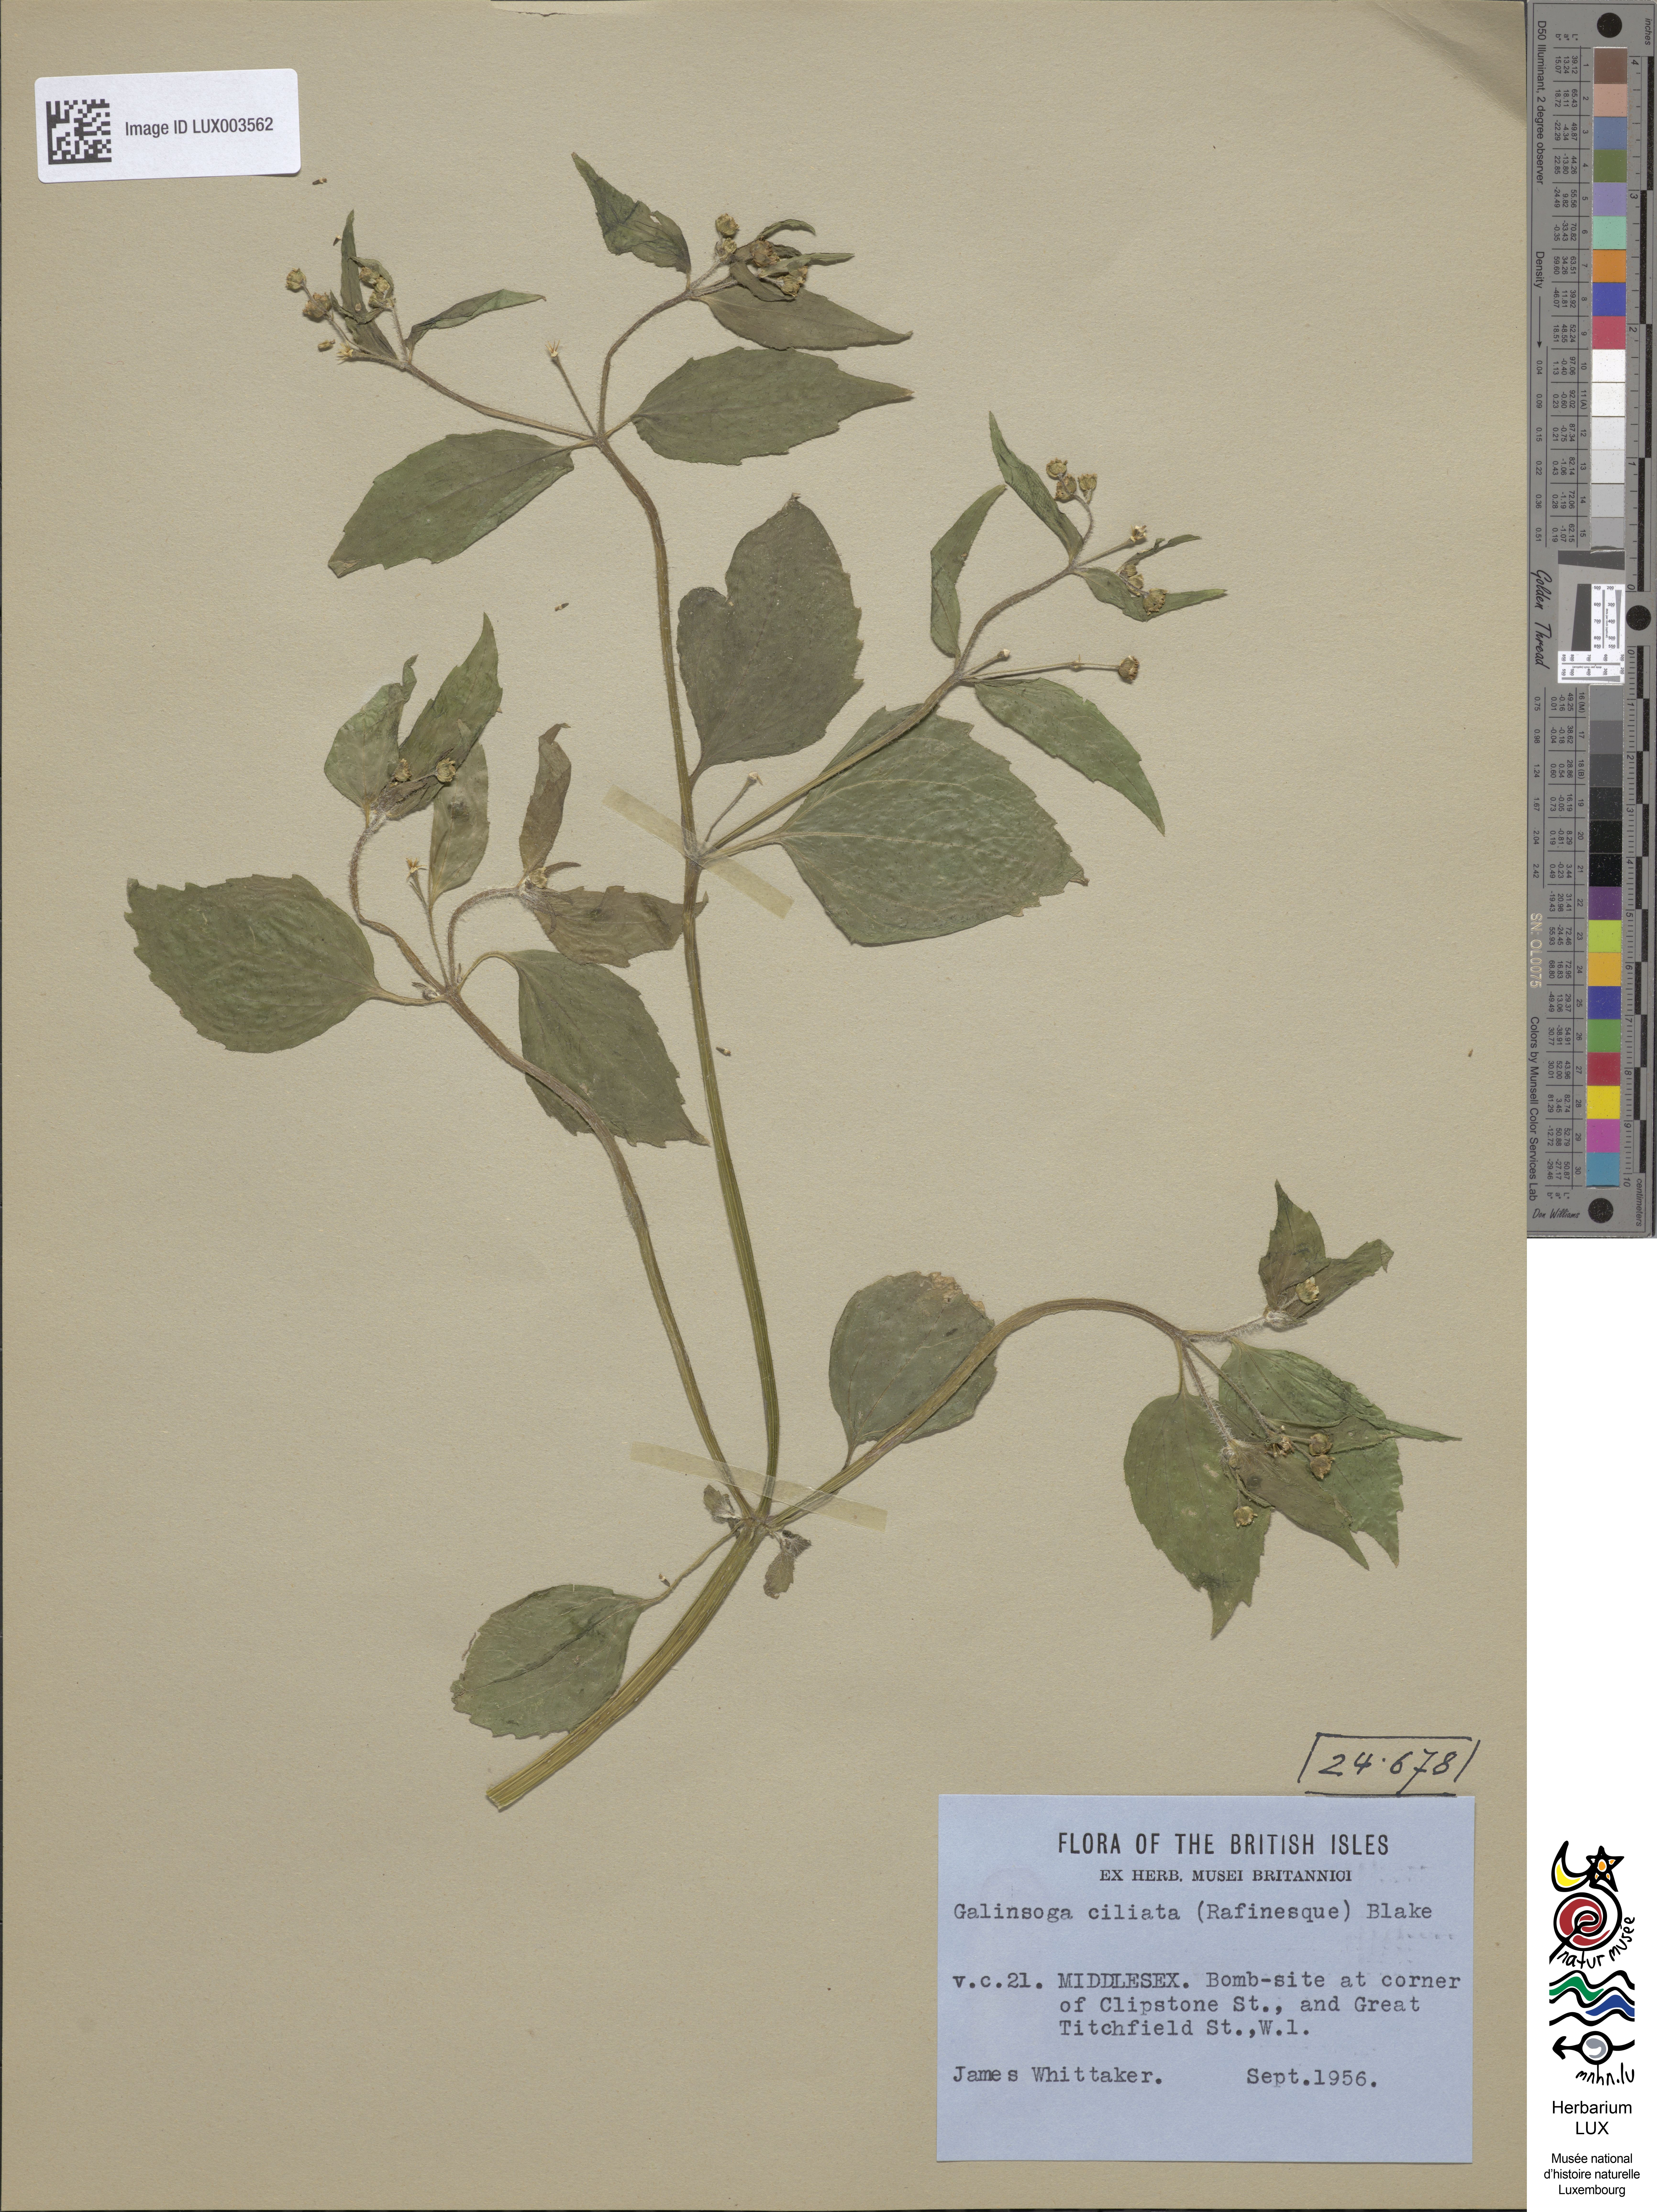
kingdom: Plantae
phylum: Tracheophyta
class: Magnoliopsida
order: Asterales
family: Asteraceae
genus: Galinsoga
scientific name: Galinsoga quadriradiata
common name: Shaggy soldier
